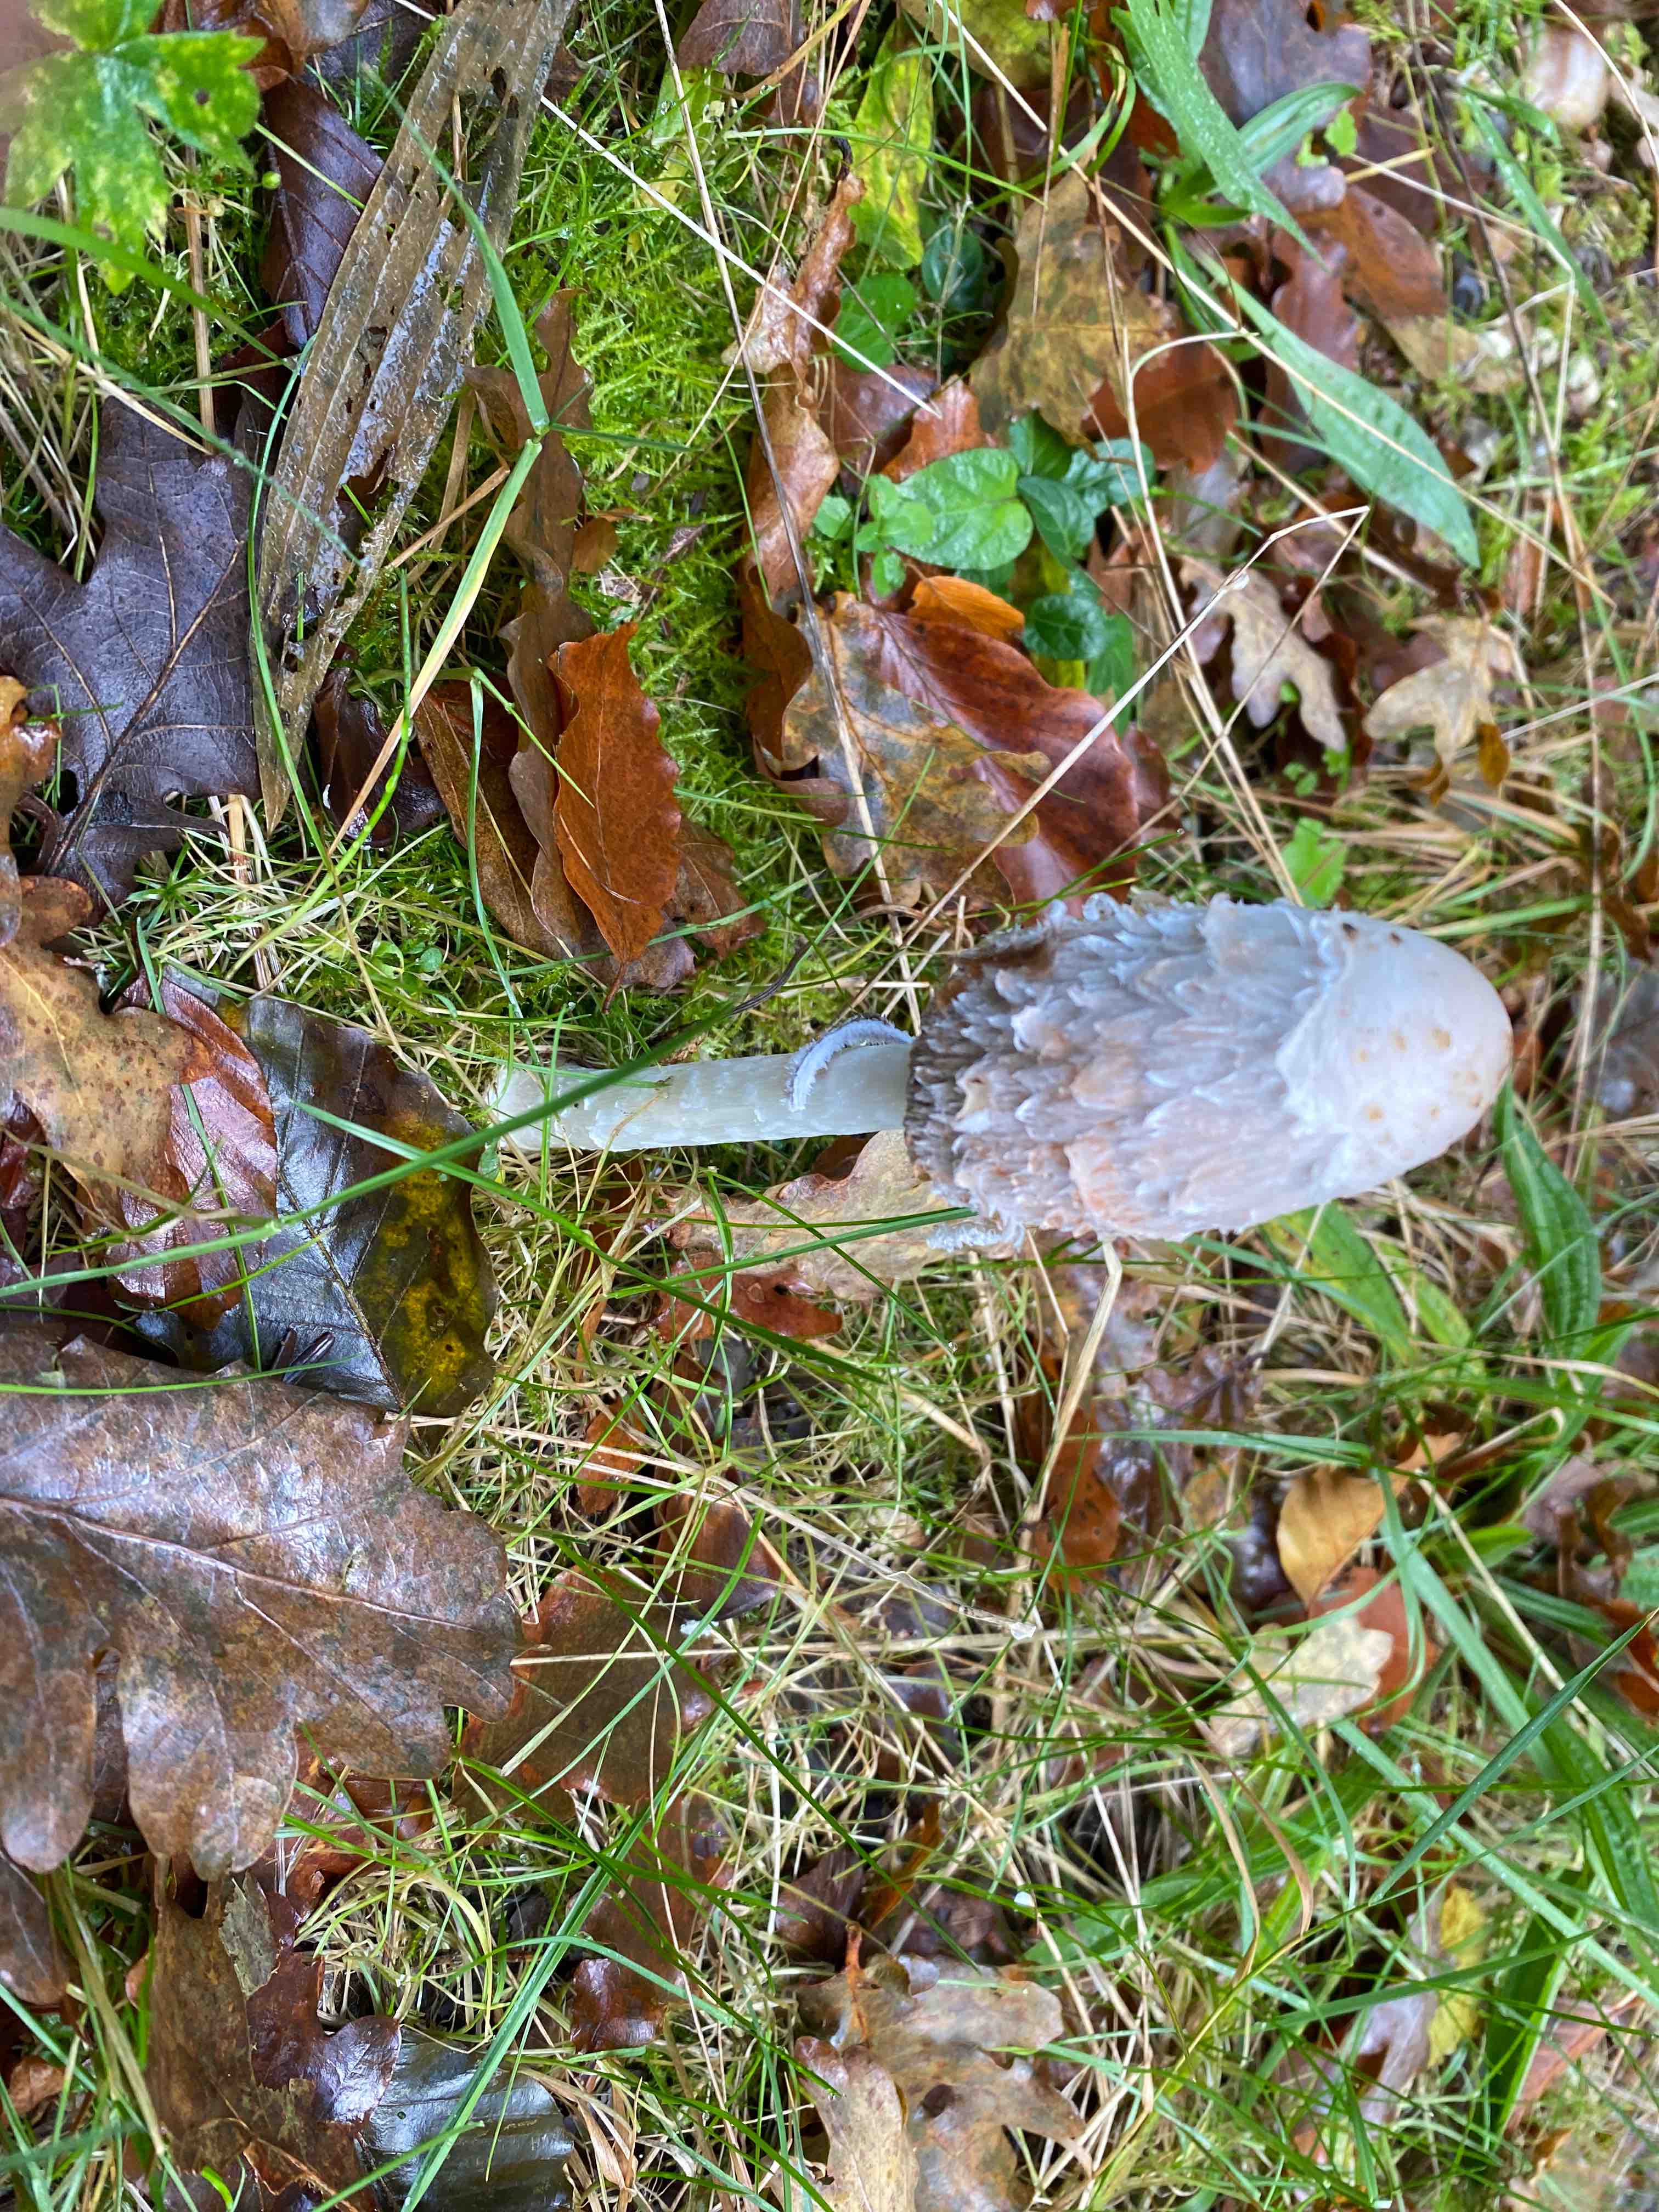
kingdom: Fungi
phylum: Basidiomycota
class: Agaricomycetes
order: Agaricales
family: Agaricaceae
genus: Coprinus
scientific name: Coprinus comatus
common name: stor parykhat
